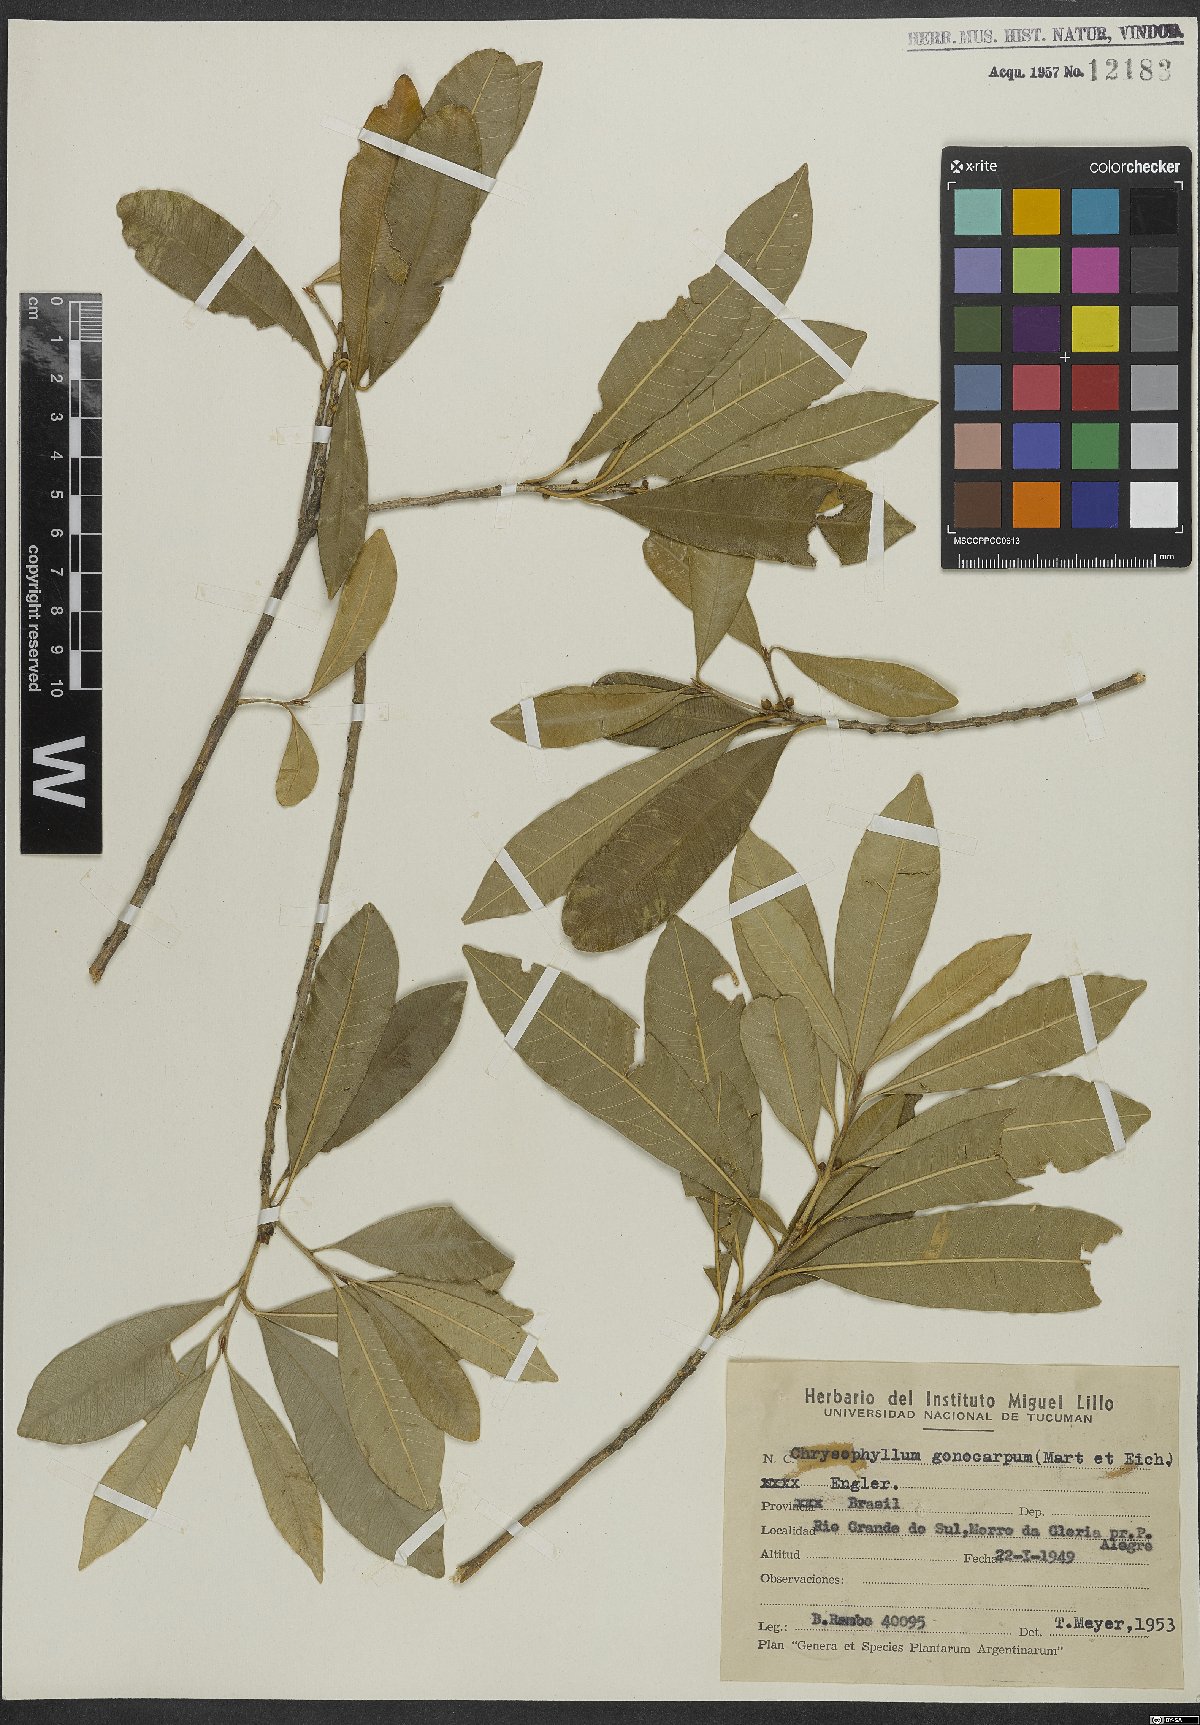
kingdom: Plantae
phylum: Tracheophyta
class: Magnoliopsida
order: Ericales
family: Sapotaceae
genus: Chrysophyllum
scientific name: Chrysophyllum gonocarpum
